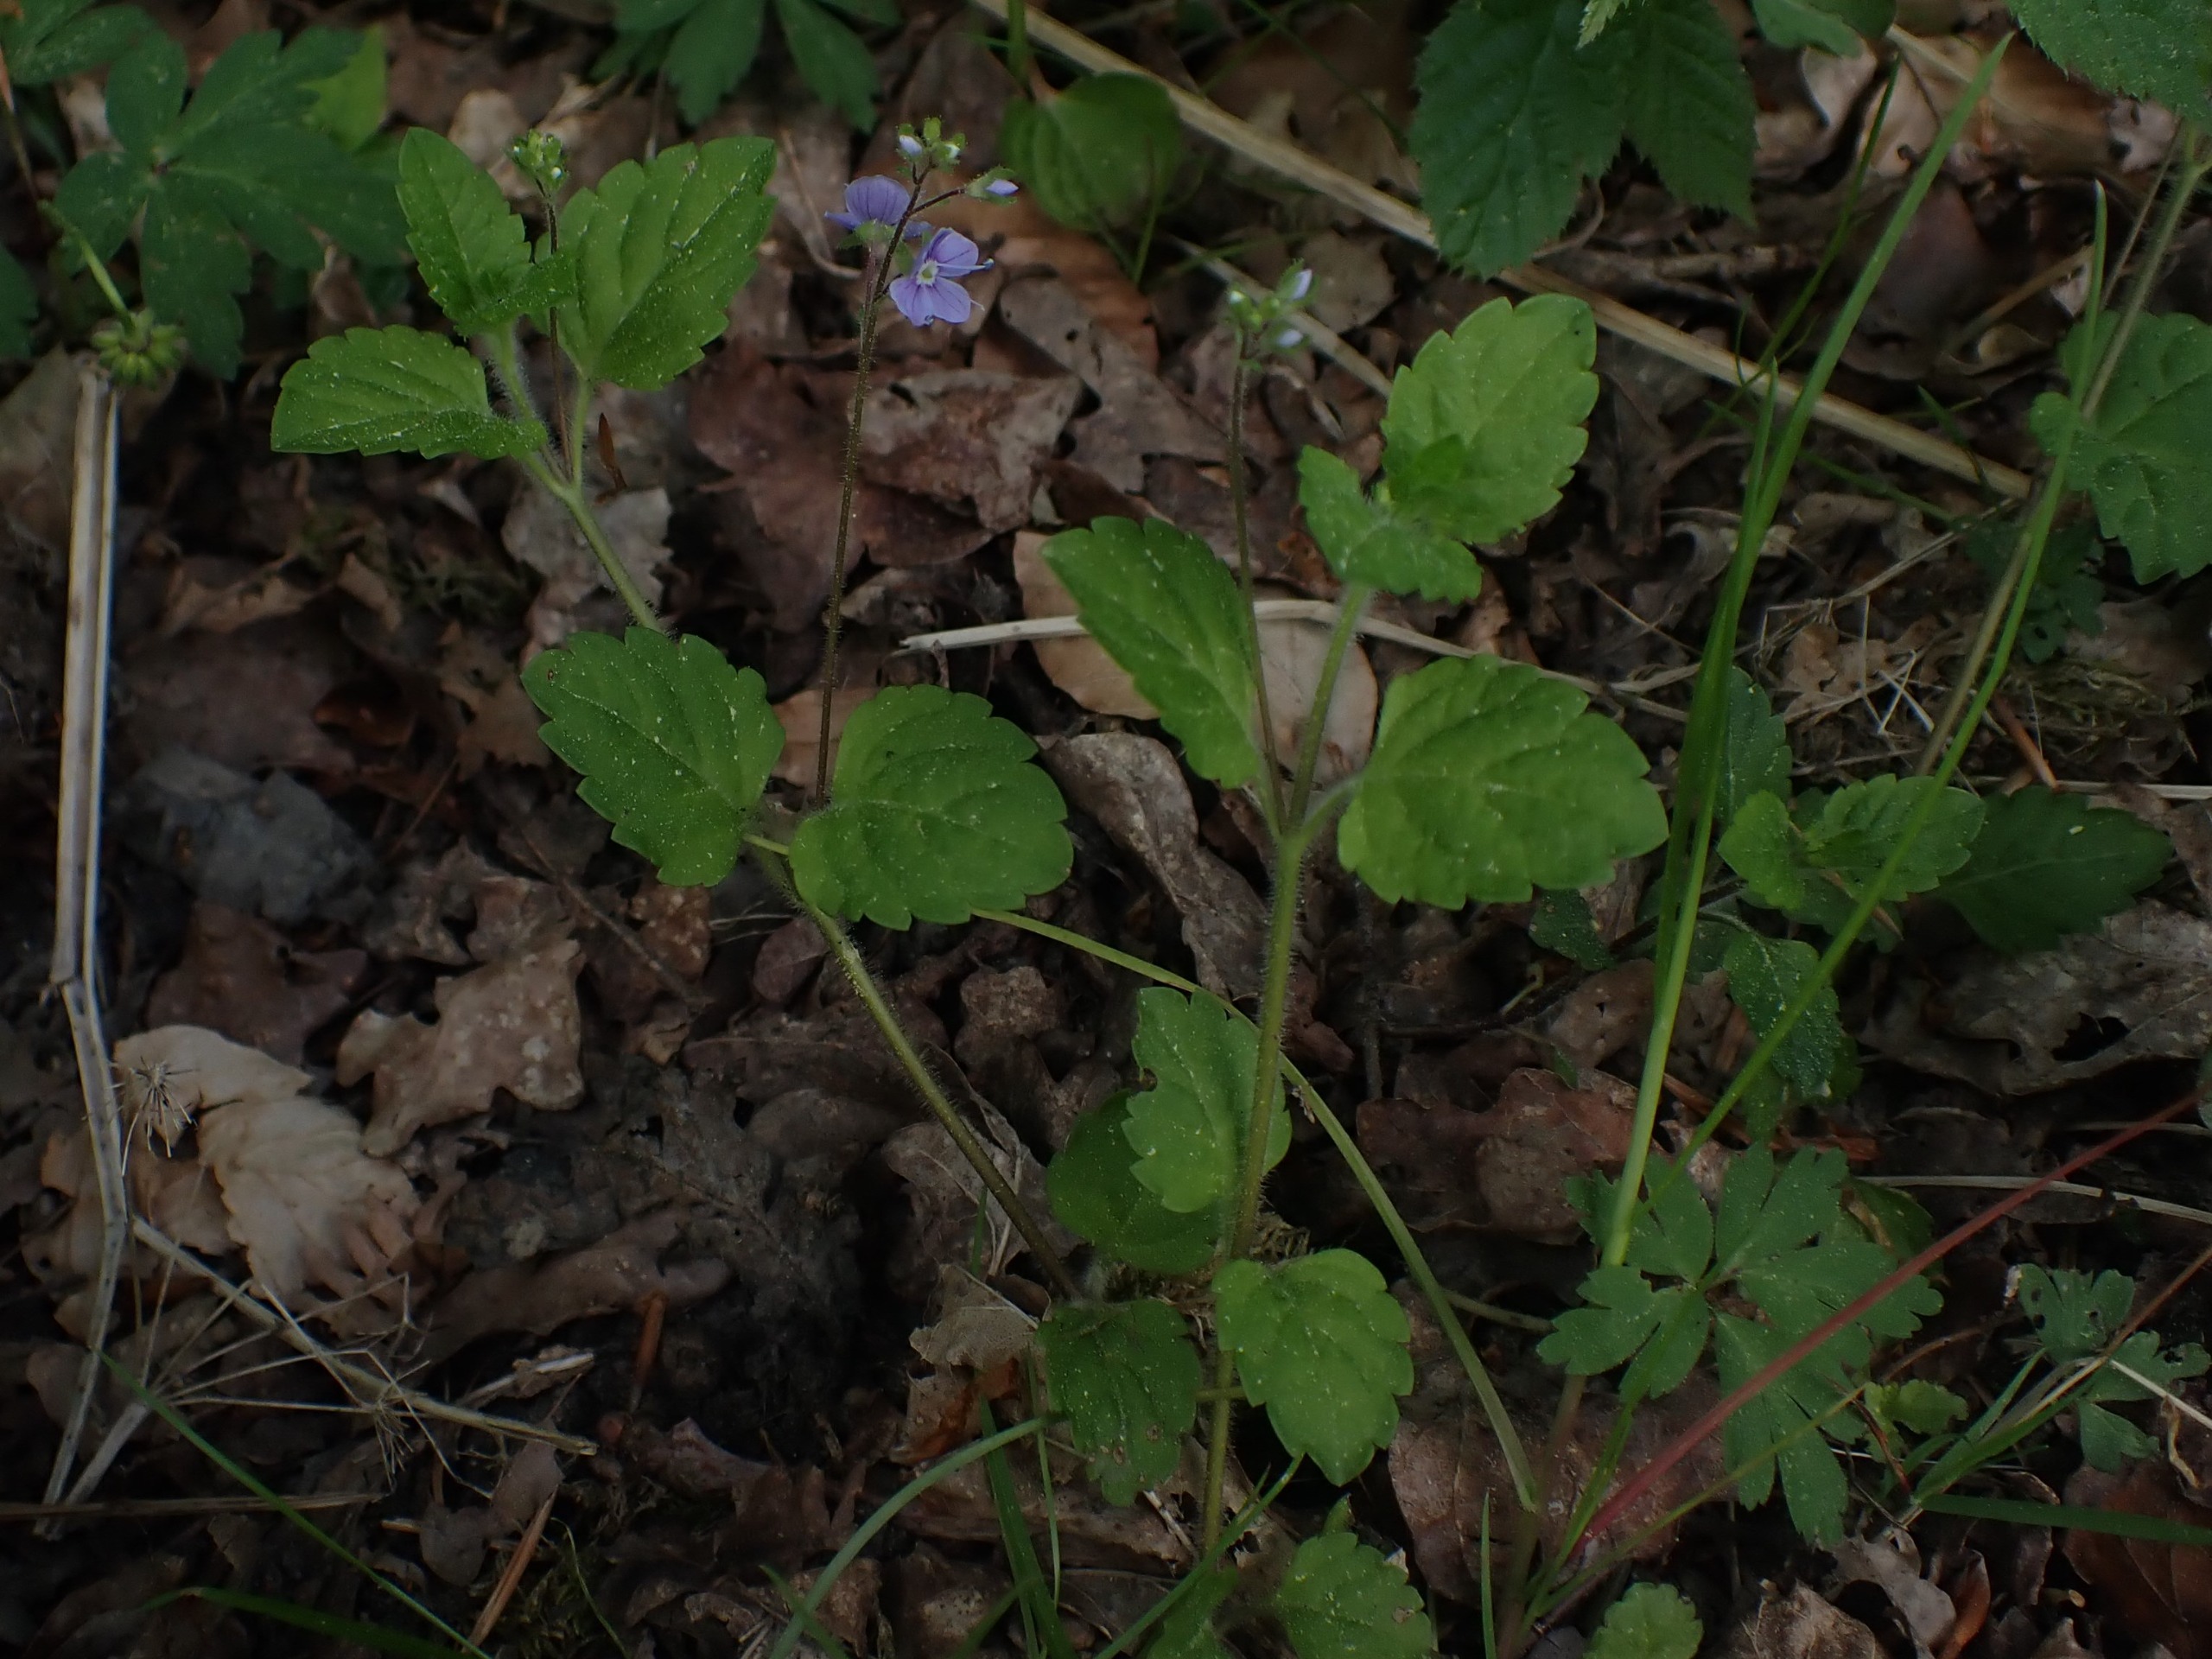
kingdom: Plantae
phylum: Tracheophyta
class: Magnoliopsida
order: Lamiales
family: Plantaginaceae
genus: Veronica
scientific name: Veronica montana
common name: Bjerg-ærenpris
